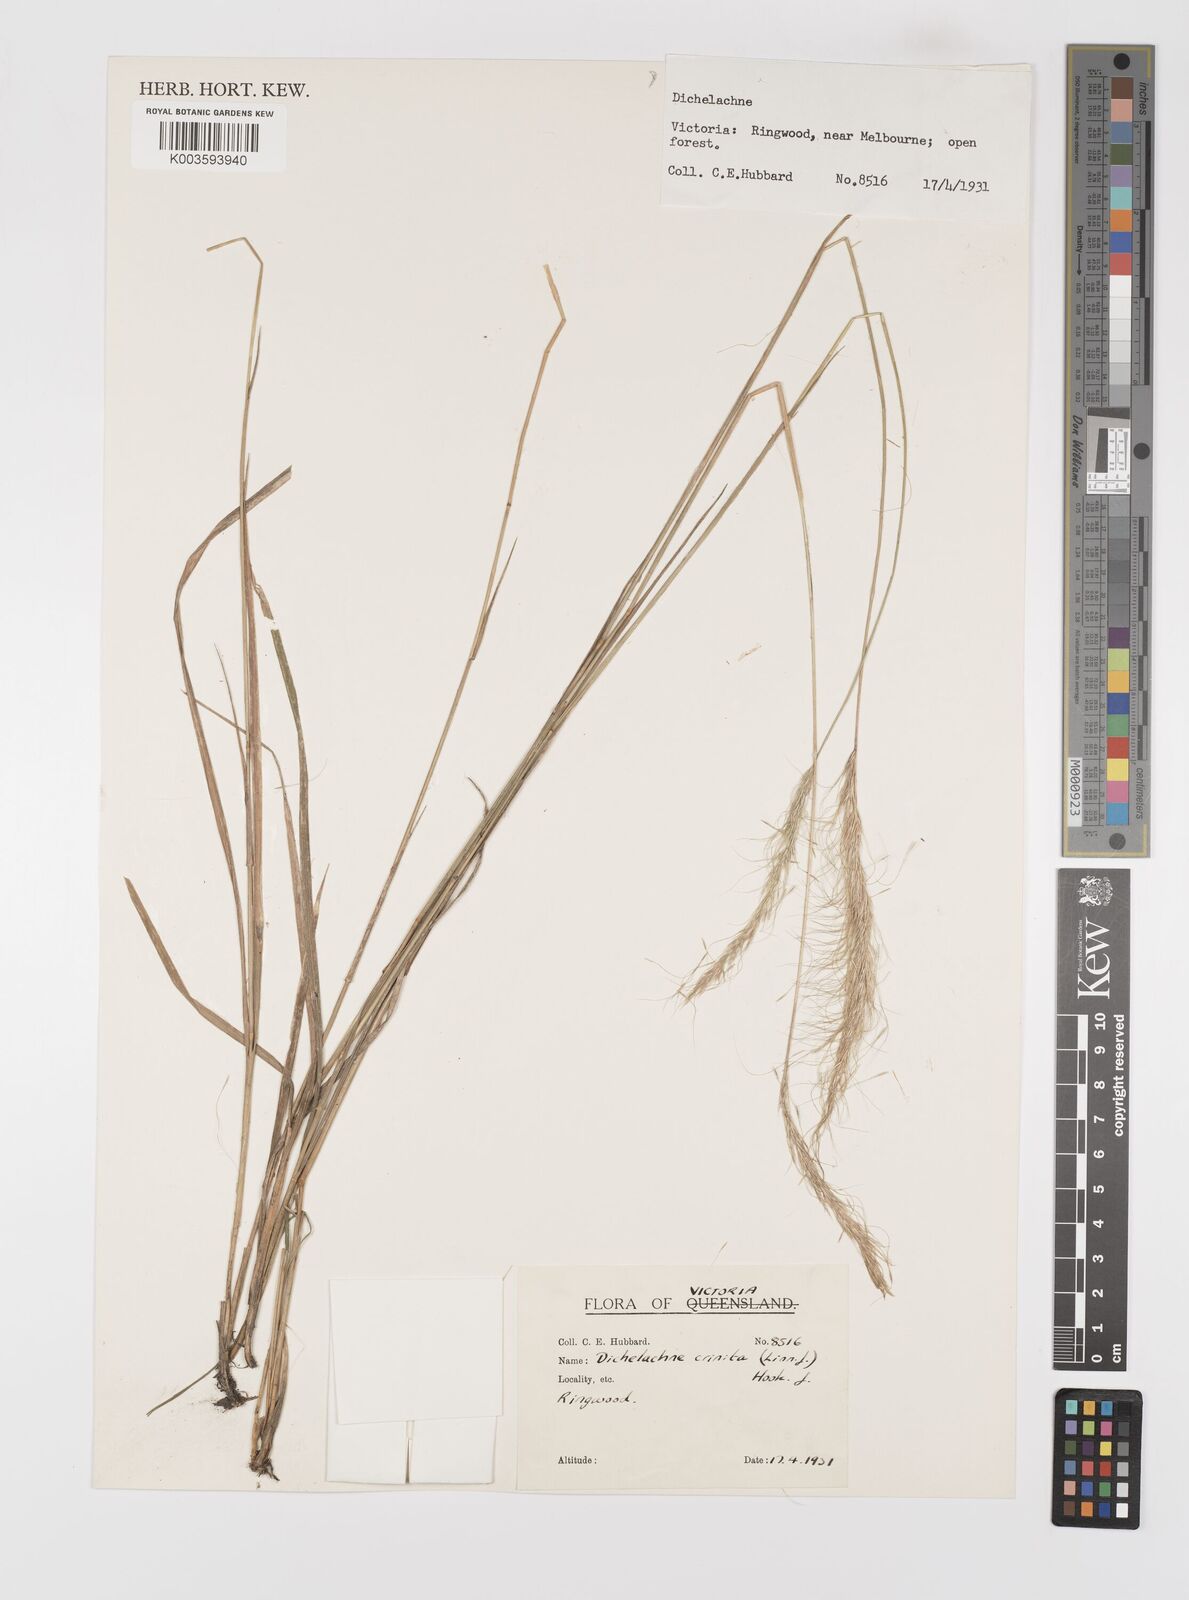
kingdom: Plantae
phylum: Tracheophyta
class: Liliopsida
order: Poales
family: Poaceae
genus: Dichelachne
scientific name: Dichelachne crinita
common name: Clovenfoot plumegrass
